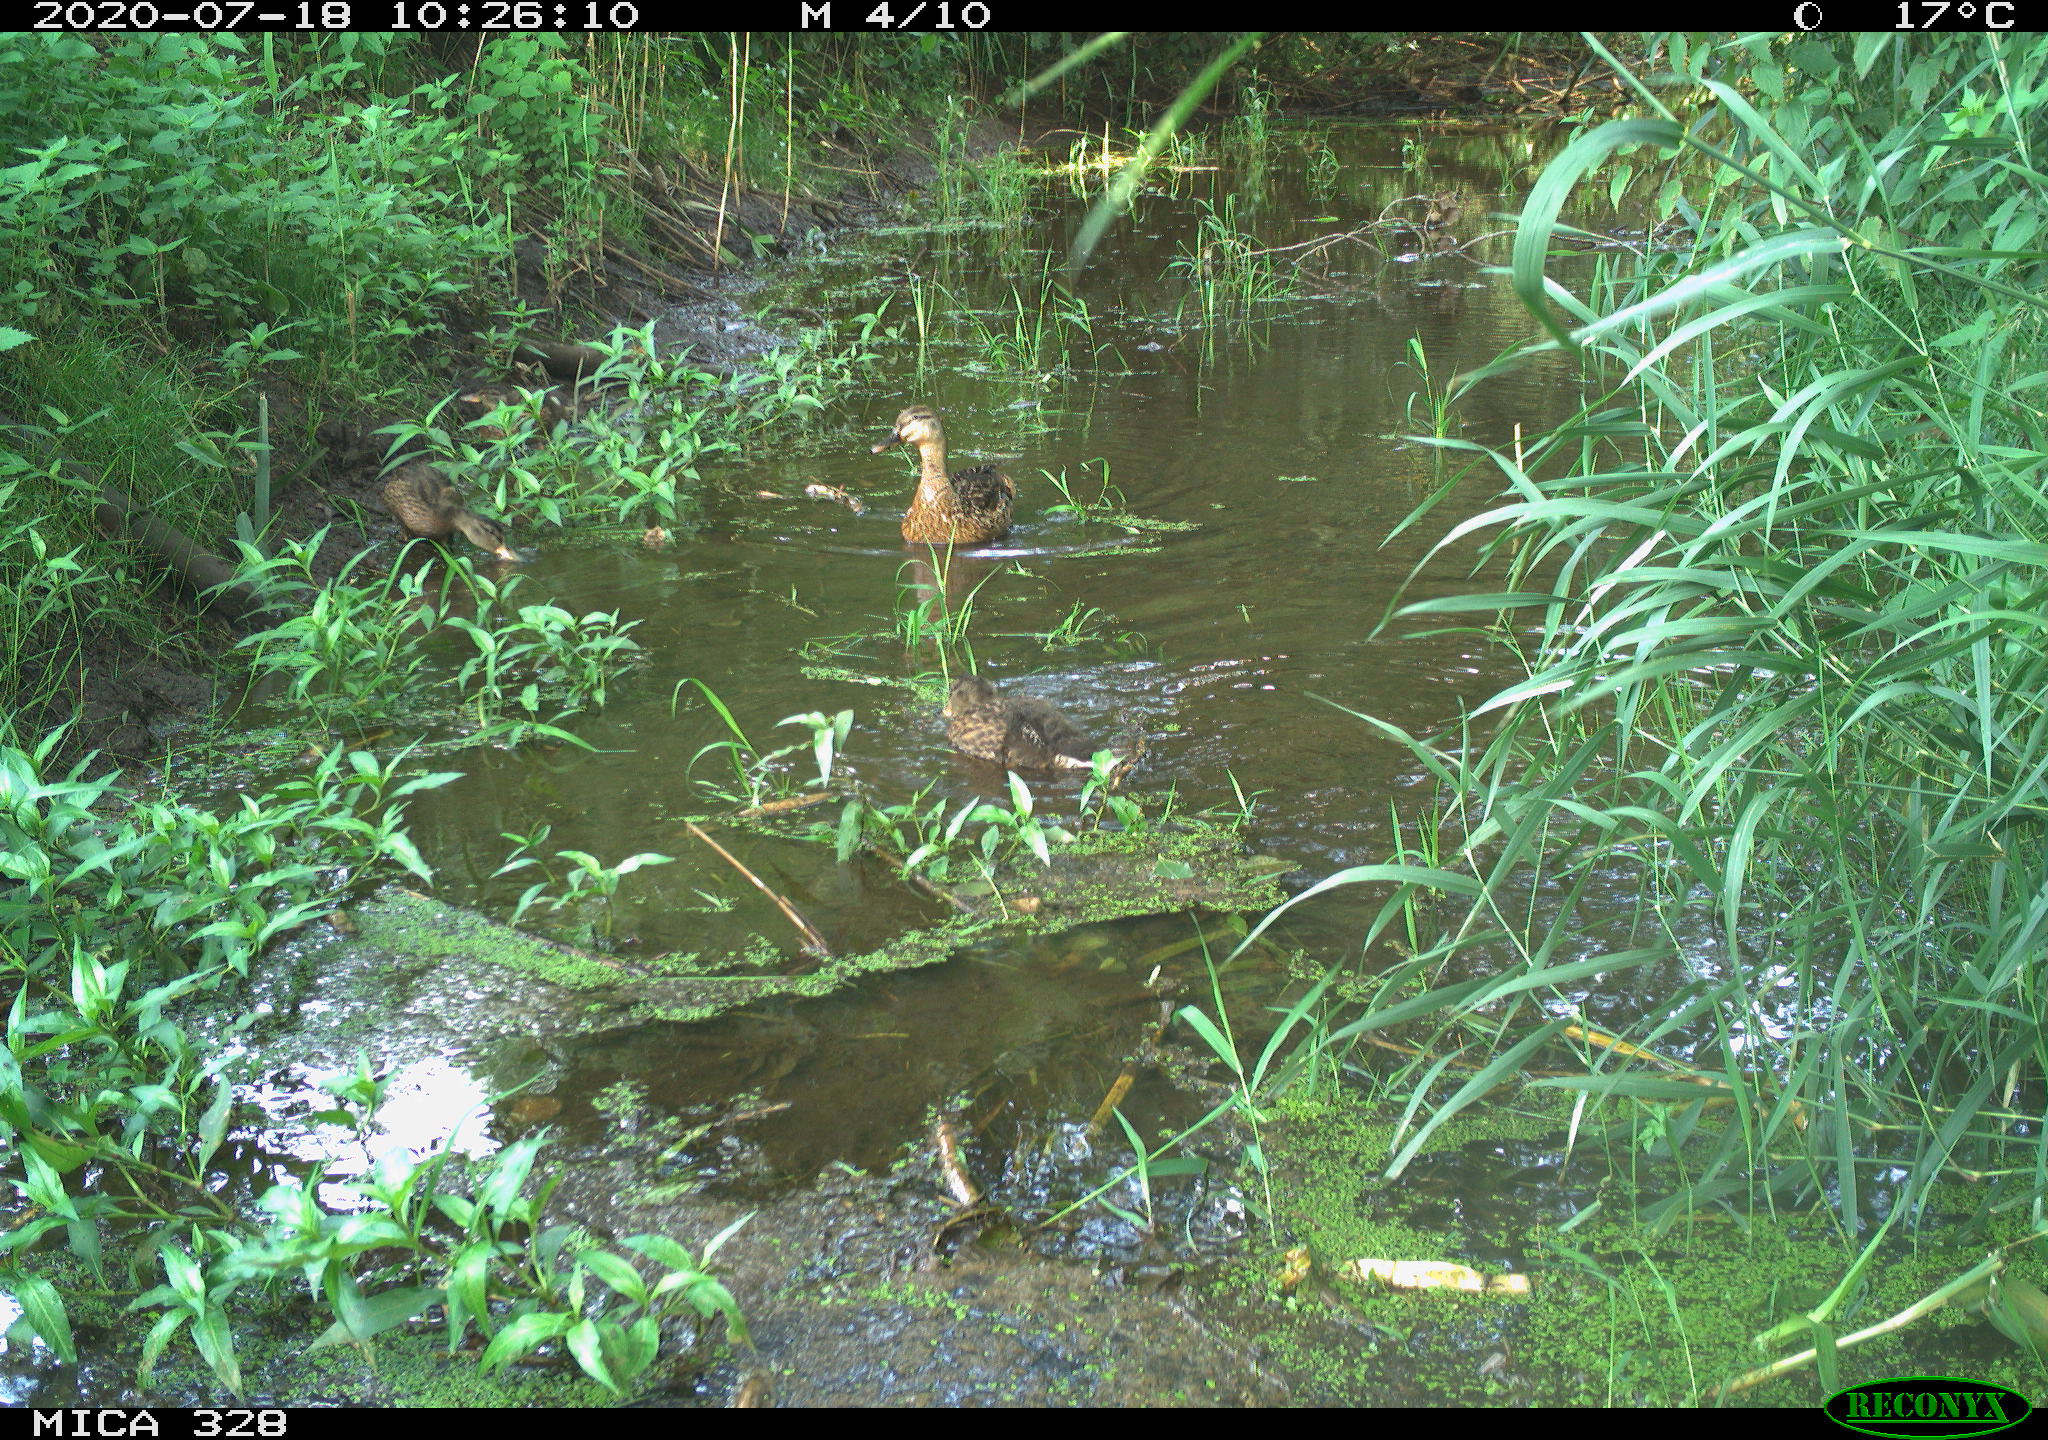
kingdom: Animalia
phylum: Chordata
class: Aves
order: Anseriformes
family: Anatidae
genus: Anas
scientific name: Anas platyrhynchos
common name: Mallard
